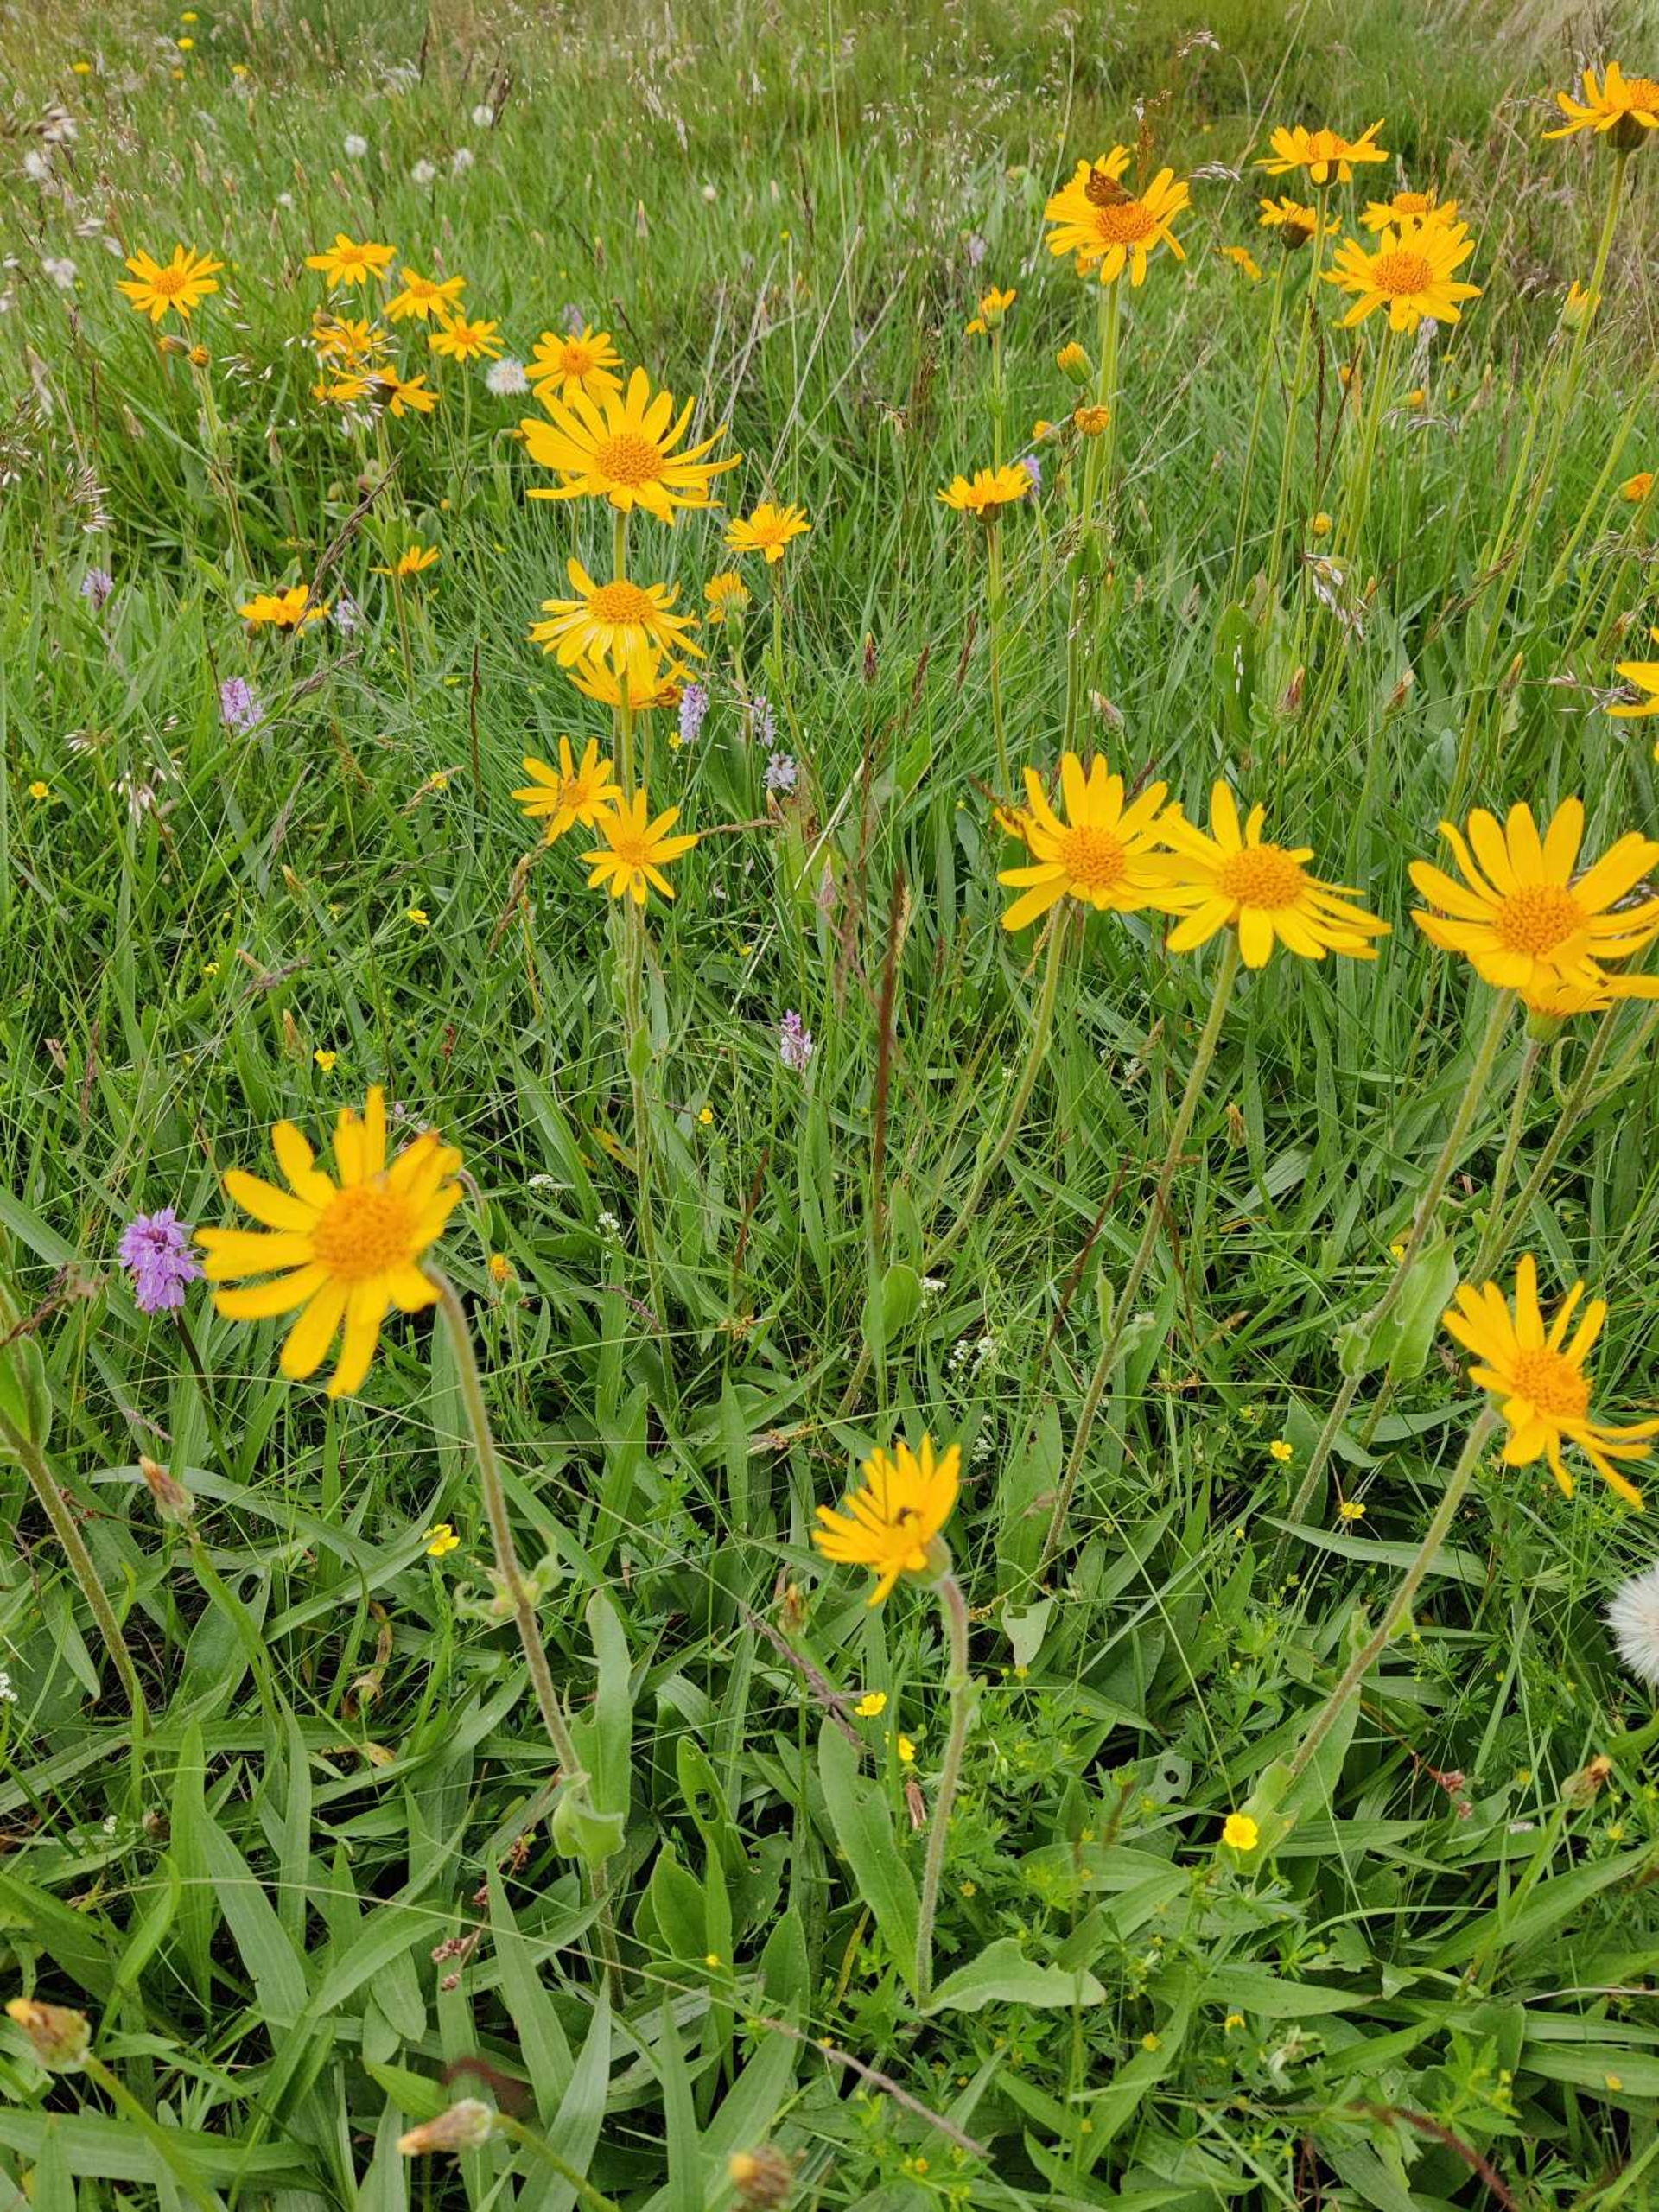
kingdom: Plantae
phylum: Tracheophyta
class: Magnoliopsida
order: Asterales
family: Asteraceae
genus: Arnica
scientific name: Arnica montana
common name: Guldblomme
